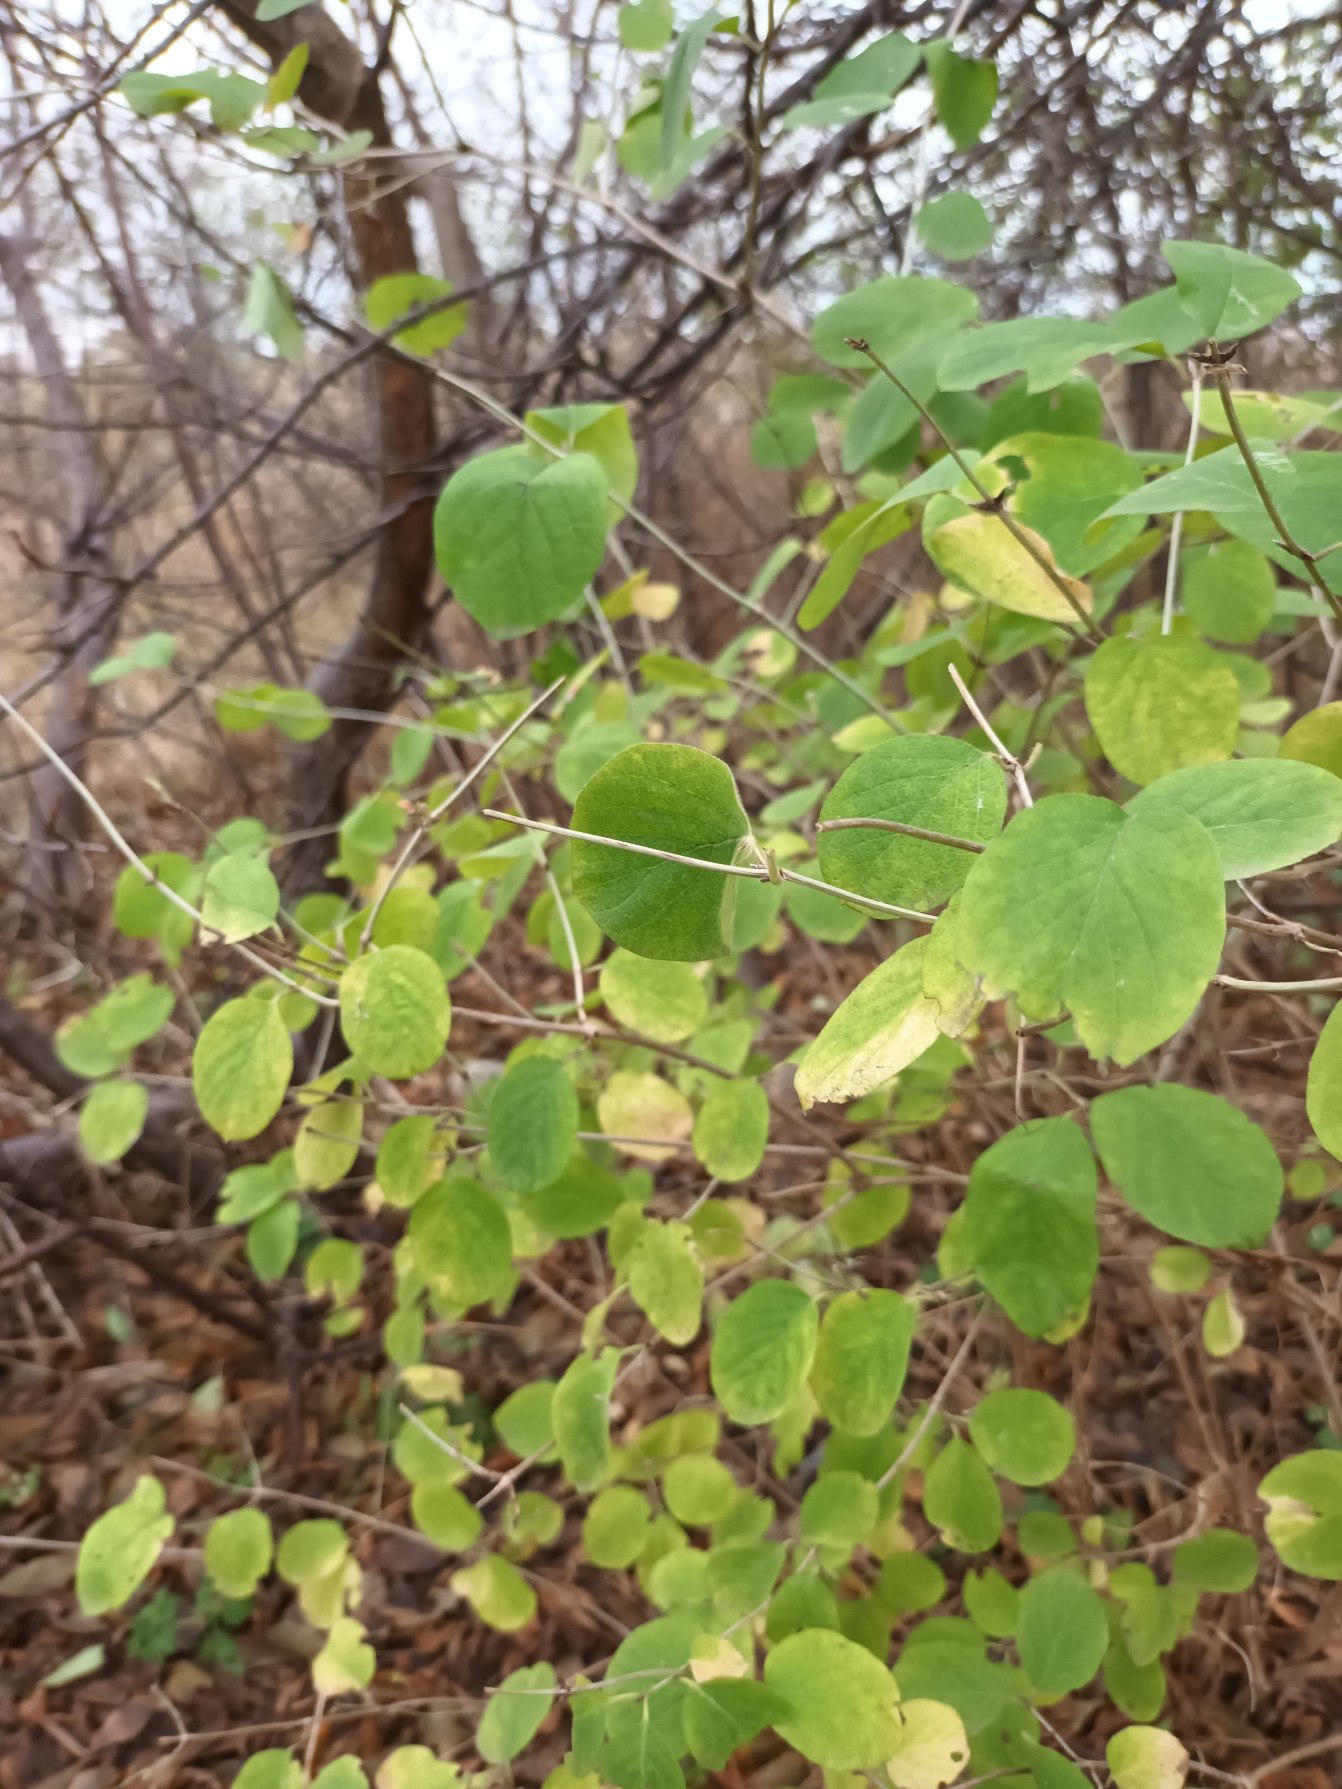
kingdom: Plantae
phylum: Tracheophyta
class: Magnoliopsida
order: Dipsacales
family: Caprifoliaceae
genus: Lonicera
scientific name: Lonicera xylosteum
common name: Dunet gedeblad
